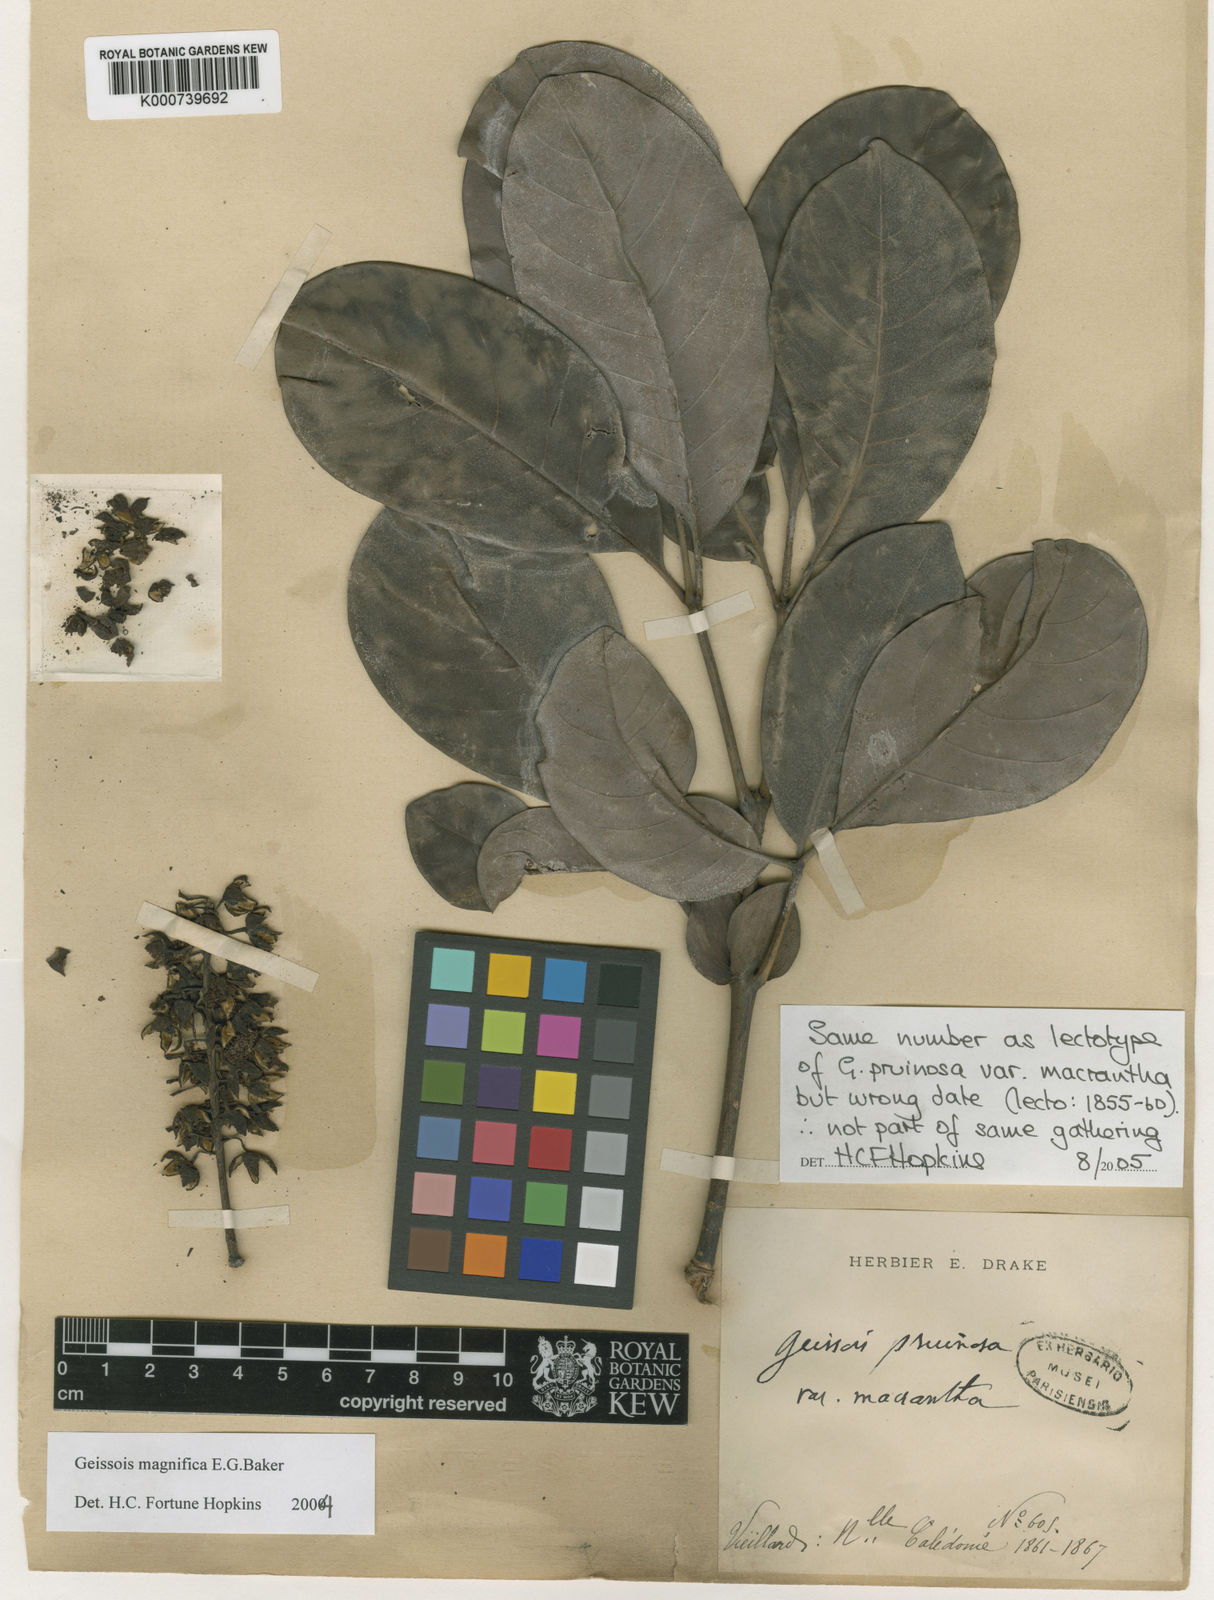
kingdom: Plantae
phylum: Tracheophyta
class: Magnoliopsida
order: Oxalidales
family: Cunoniaceae
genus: Geissois
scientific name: Geissois magnifica
